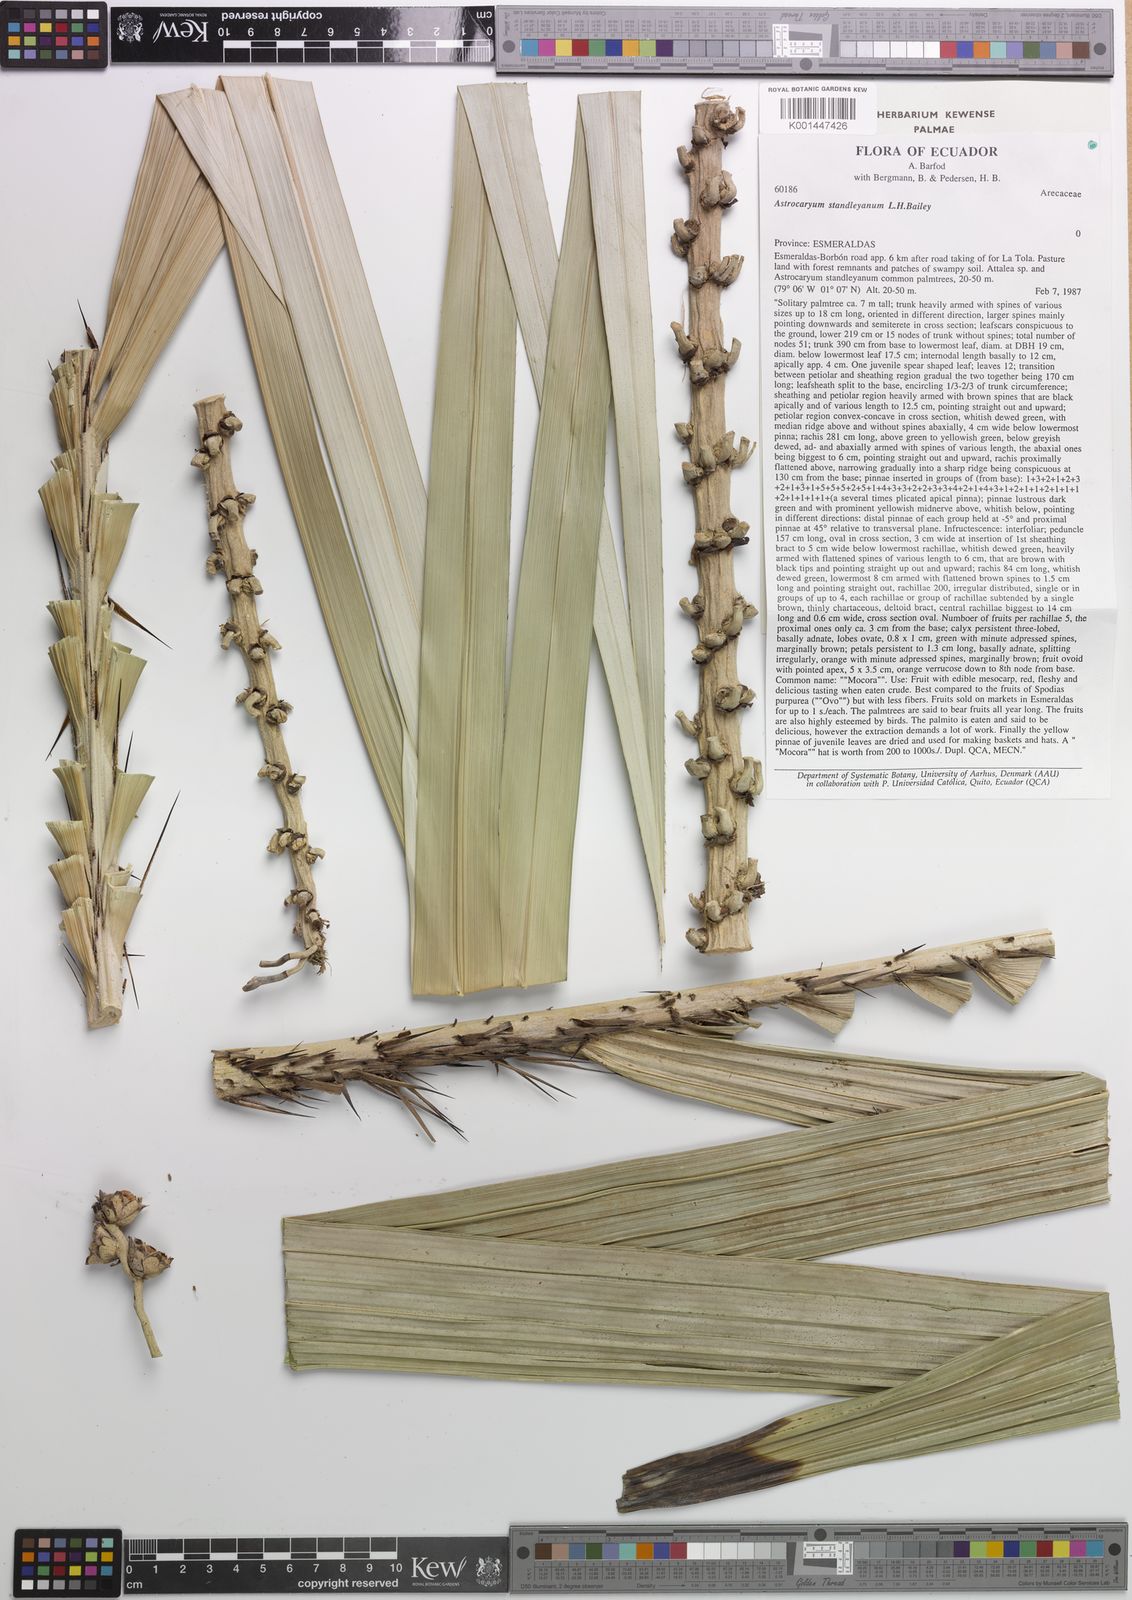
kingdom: Plantae
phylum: Tracheophyta
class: Liliopsida
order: Arecales
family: Arecaceae
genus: Astrocaryum
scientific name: Astrocaryum standleyanum
